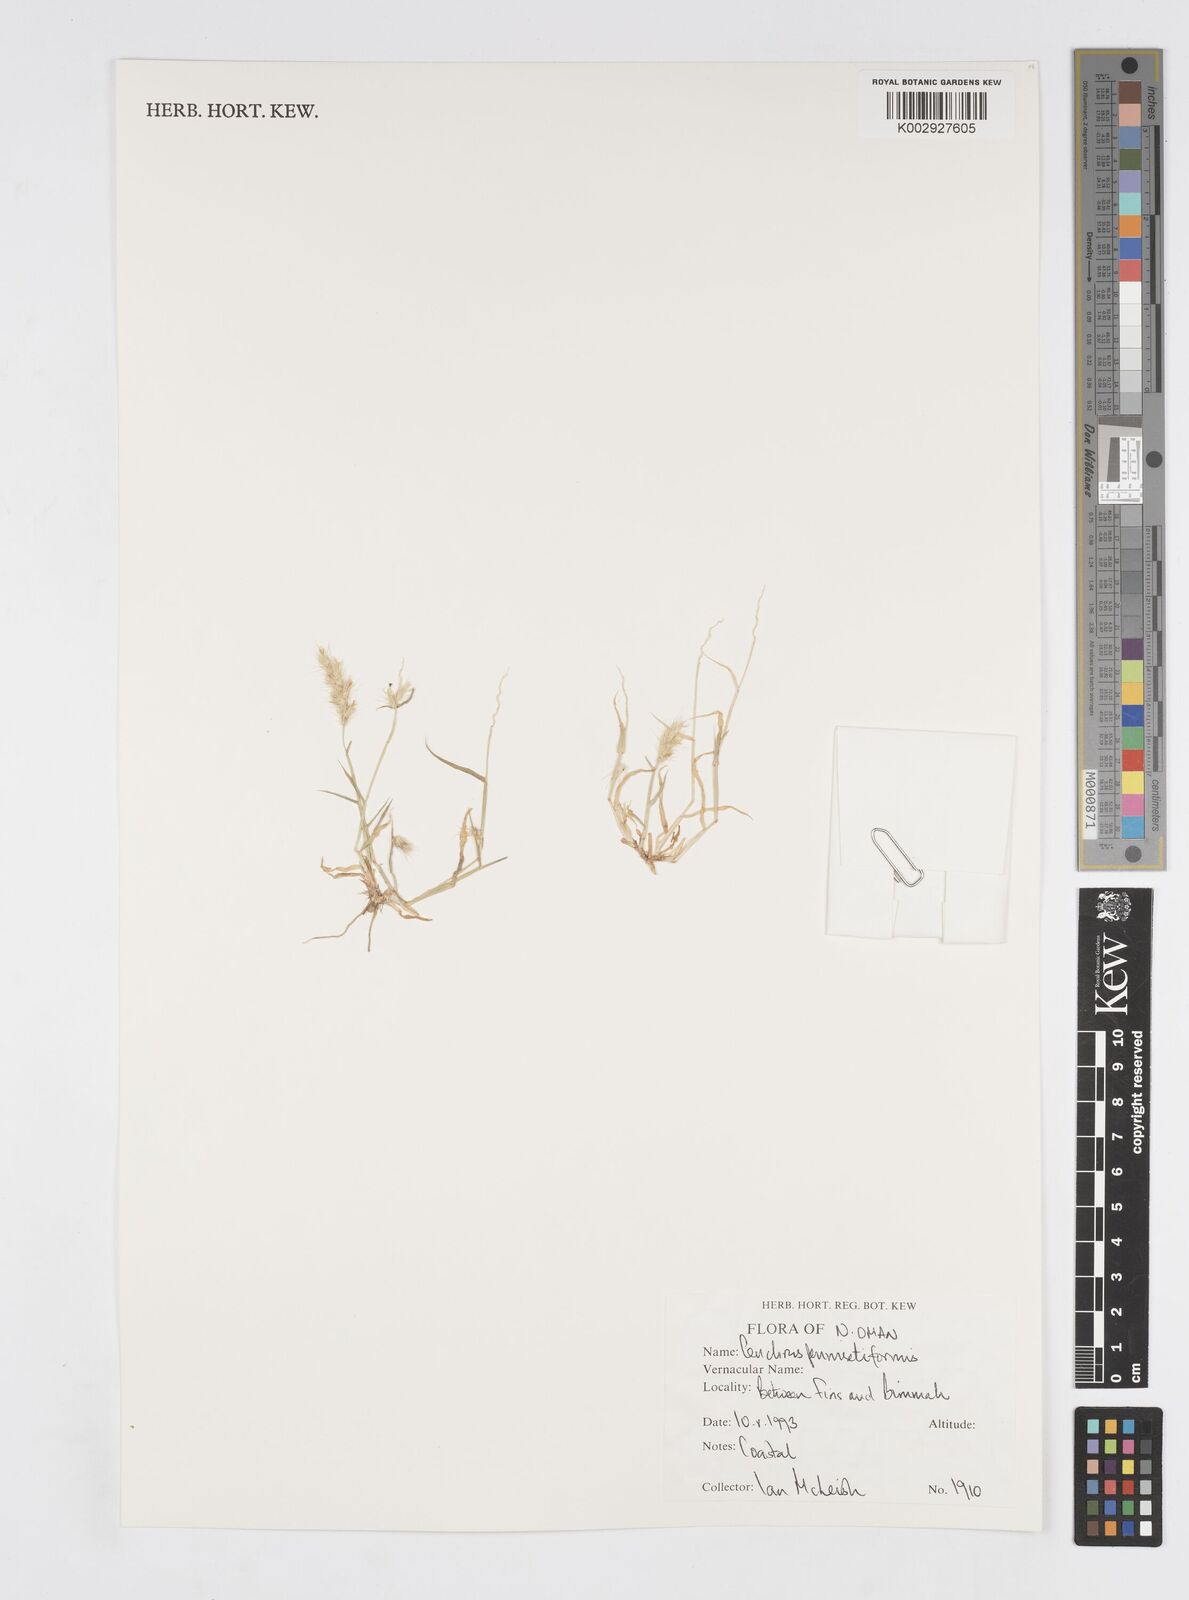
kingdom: Plantae
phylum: Tracheophyta
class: Liliopsida
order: Poales
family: Poaceae
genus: Cenchrus
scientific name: Cenchrus pennisetiformis
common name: Cloncurry
